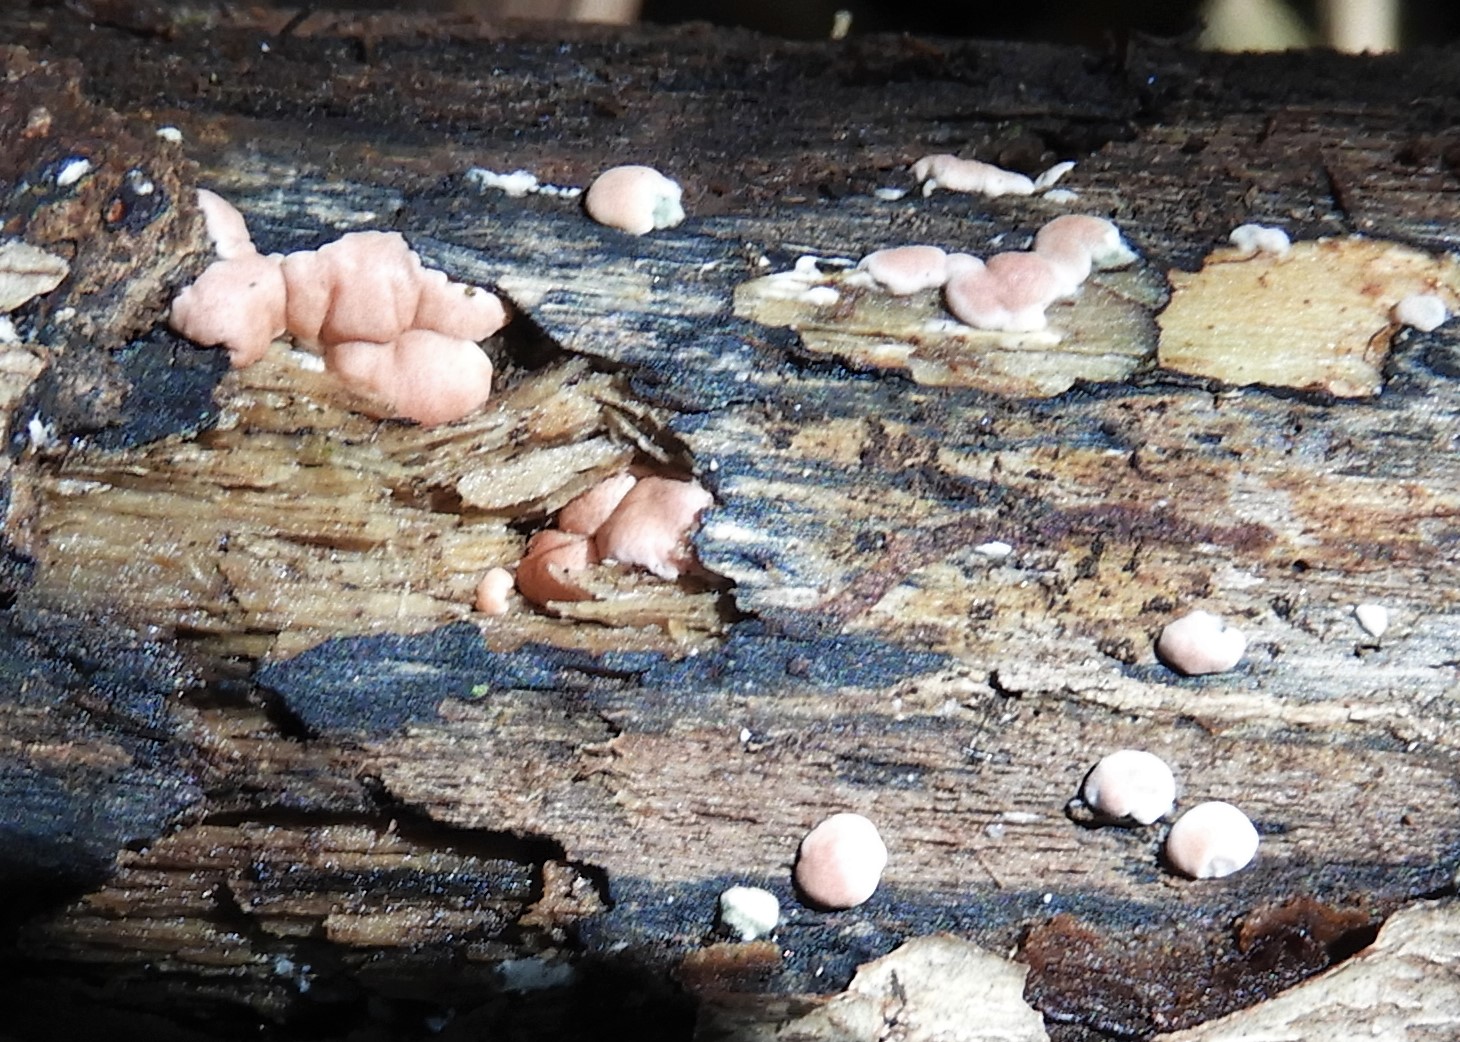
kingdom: Fungi
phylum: Ascomycota
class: Sordariomycetes
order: Hypocreales
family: Hypocreaceae
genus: Trichoderma
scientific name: Trichoderma europaeum
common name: rosabrun kødkerne
